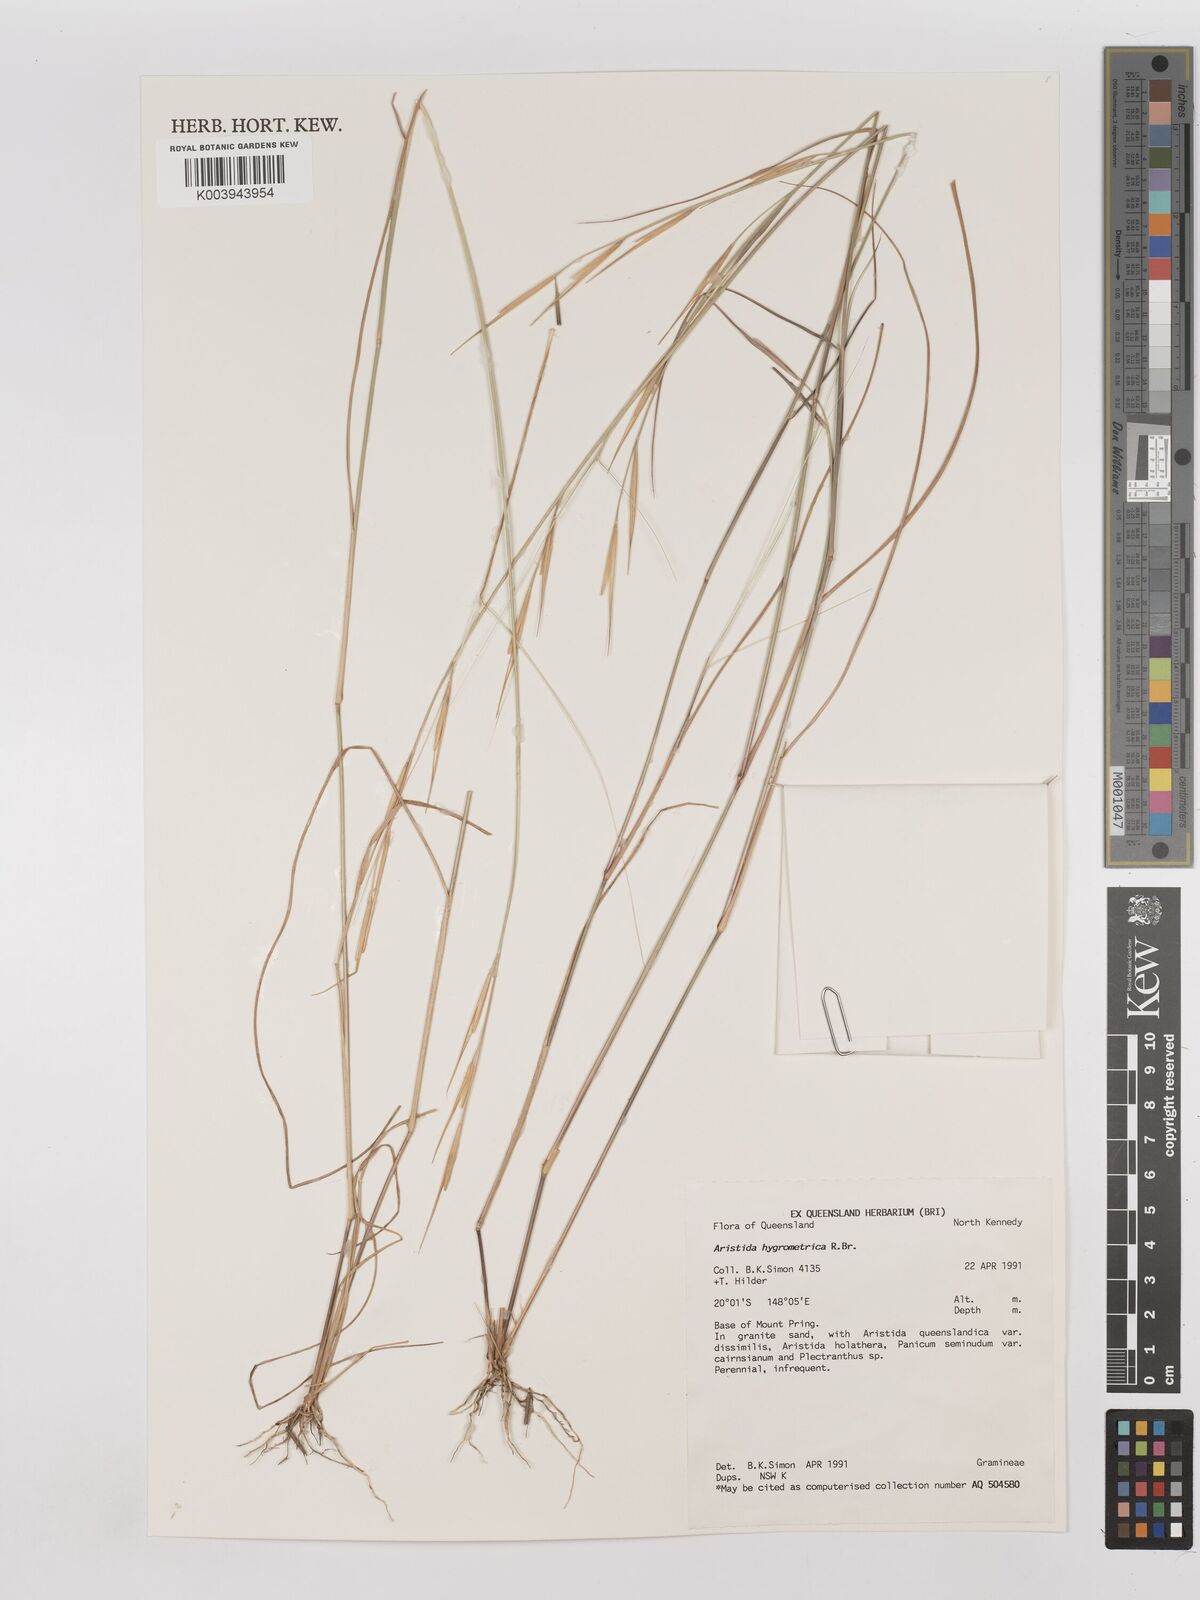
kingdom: Plantae
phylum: Tracheophyta
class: Liliopsida
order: Poales
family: Poaceae
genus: Aristida
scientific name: Aristida hygrometrica
